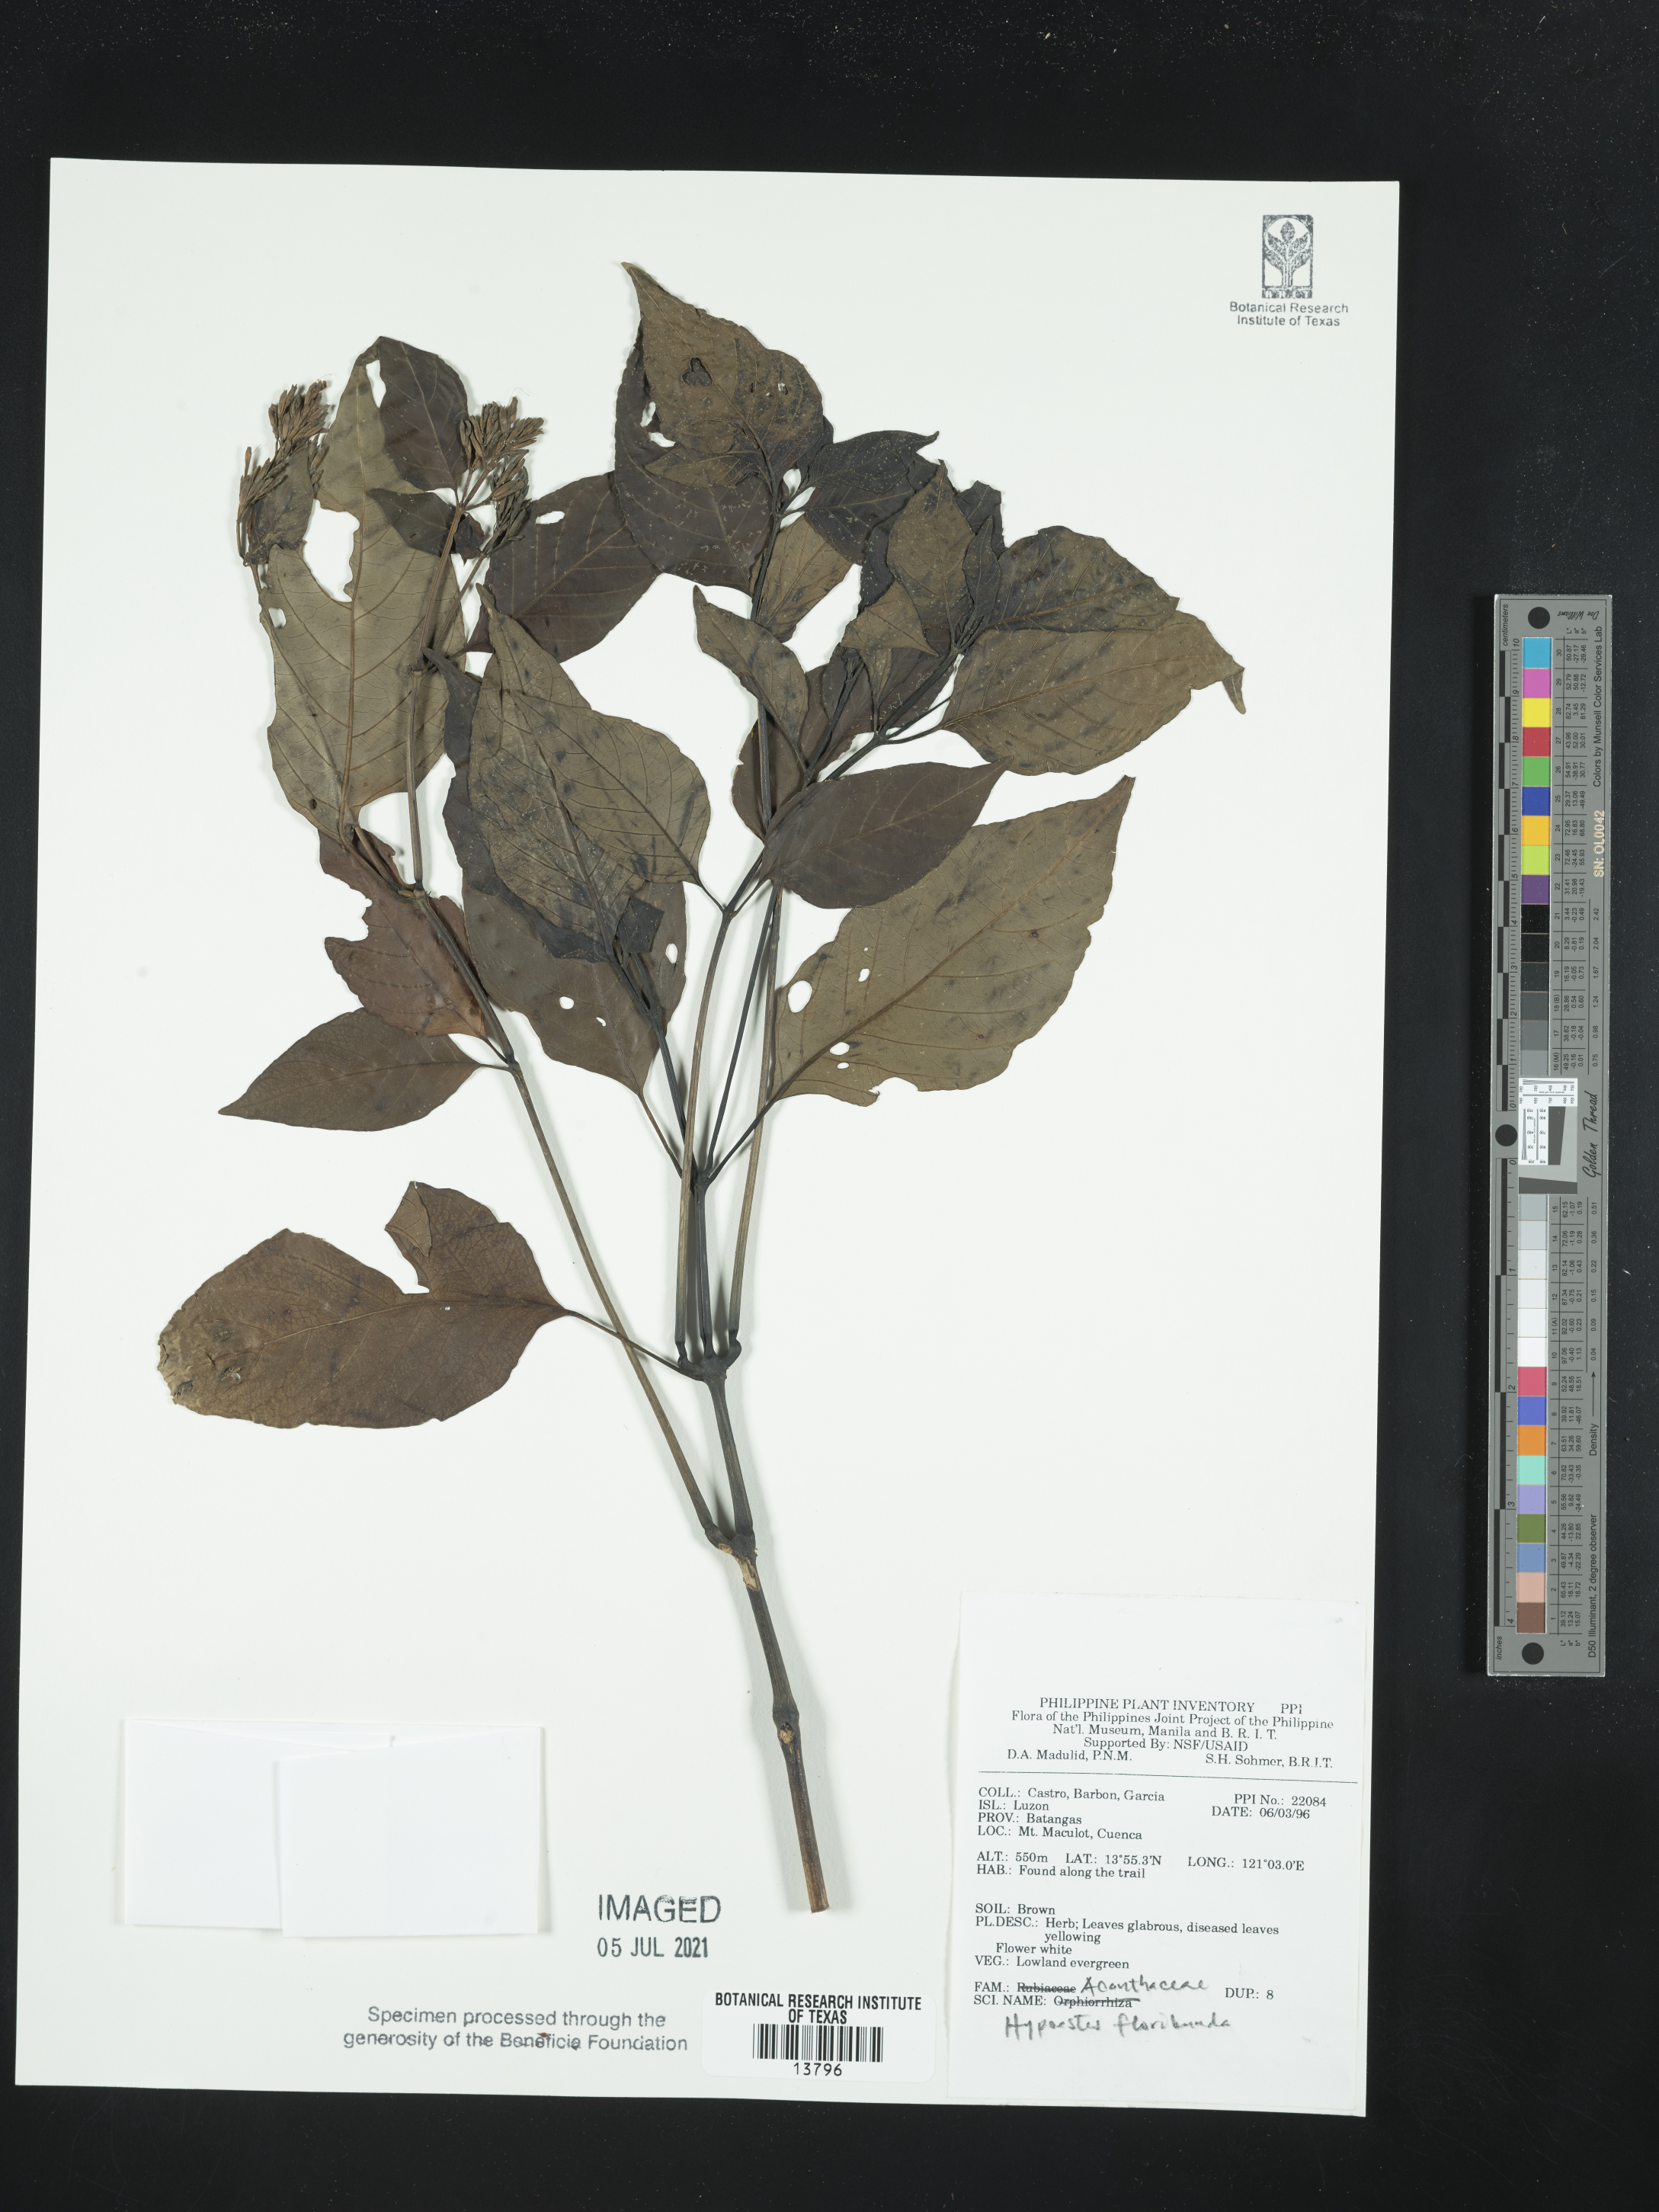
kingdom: Plantae
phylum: Tracheophyta
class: Magnoliopsida
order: Lamiales
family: Acanthaceae
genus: Hypoestes
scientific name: Hypoestes floribunda
